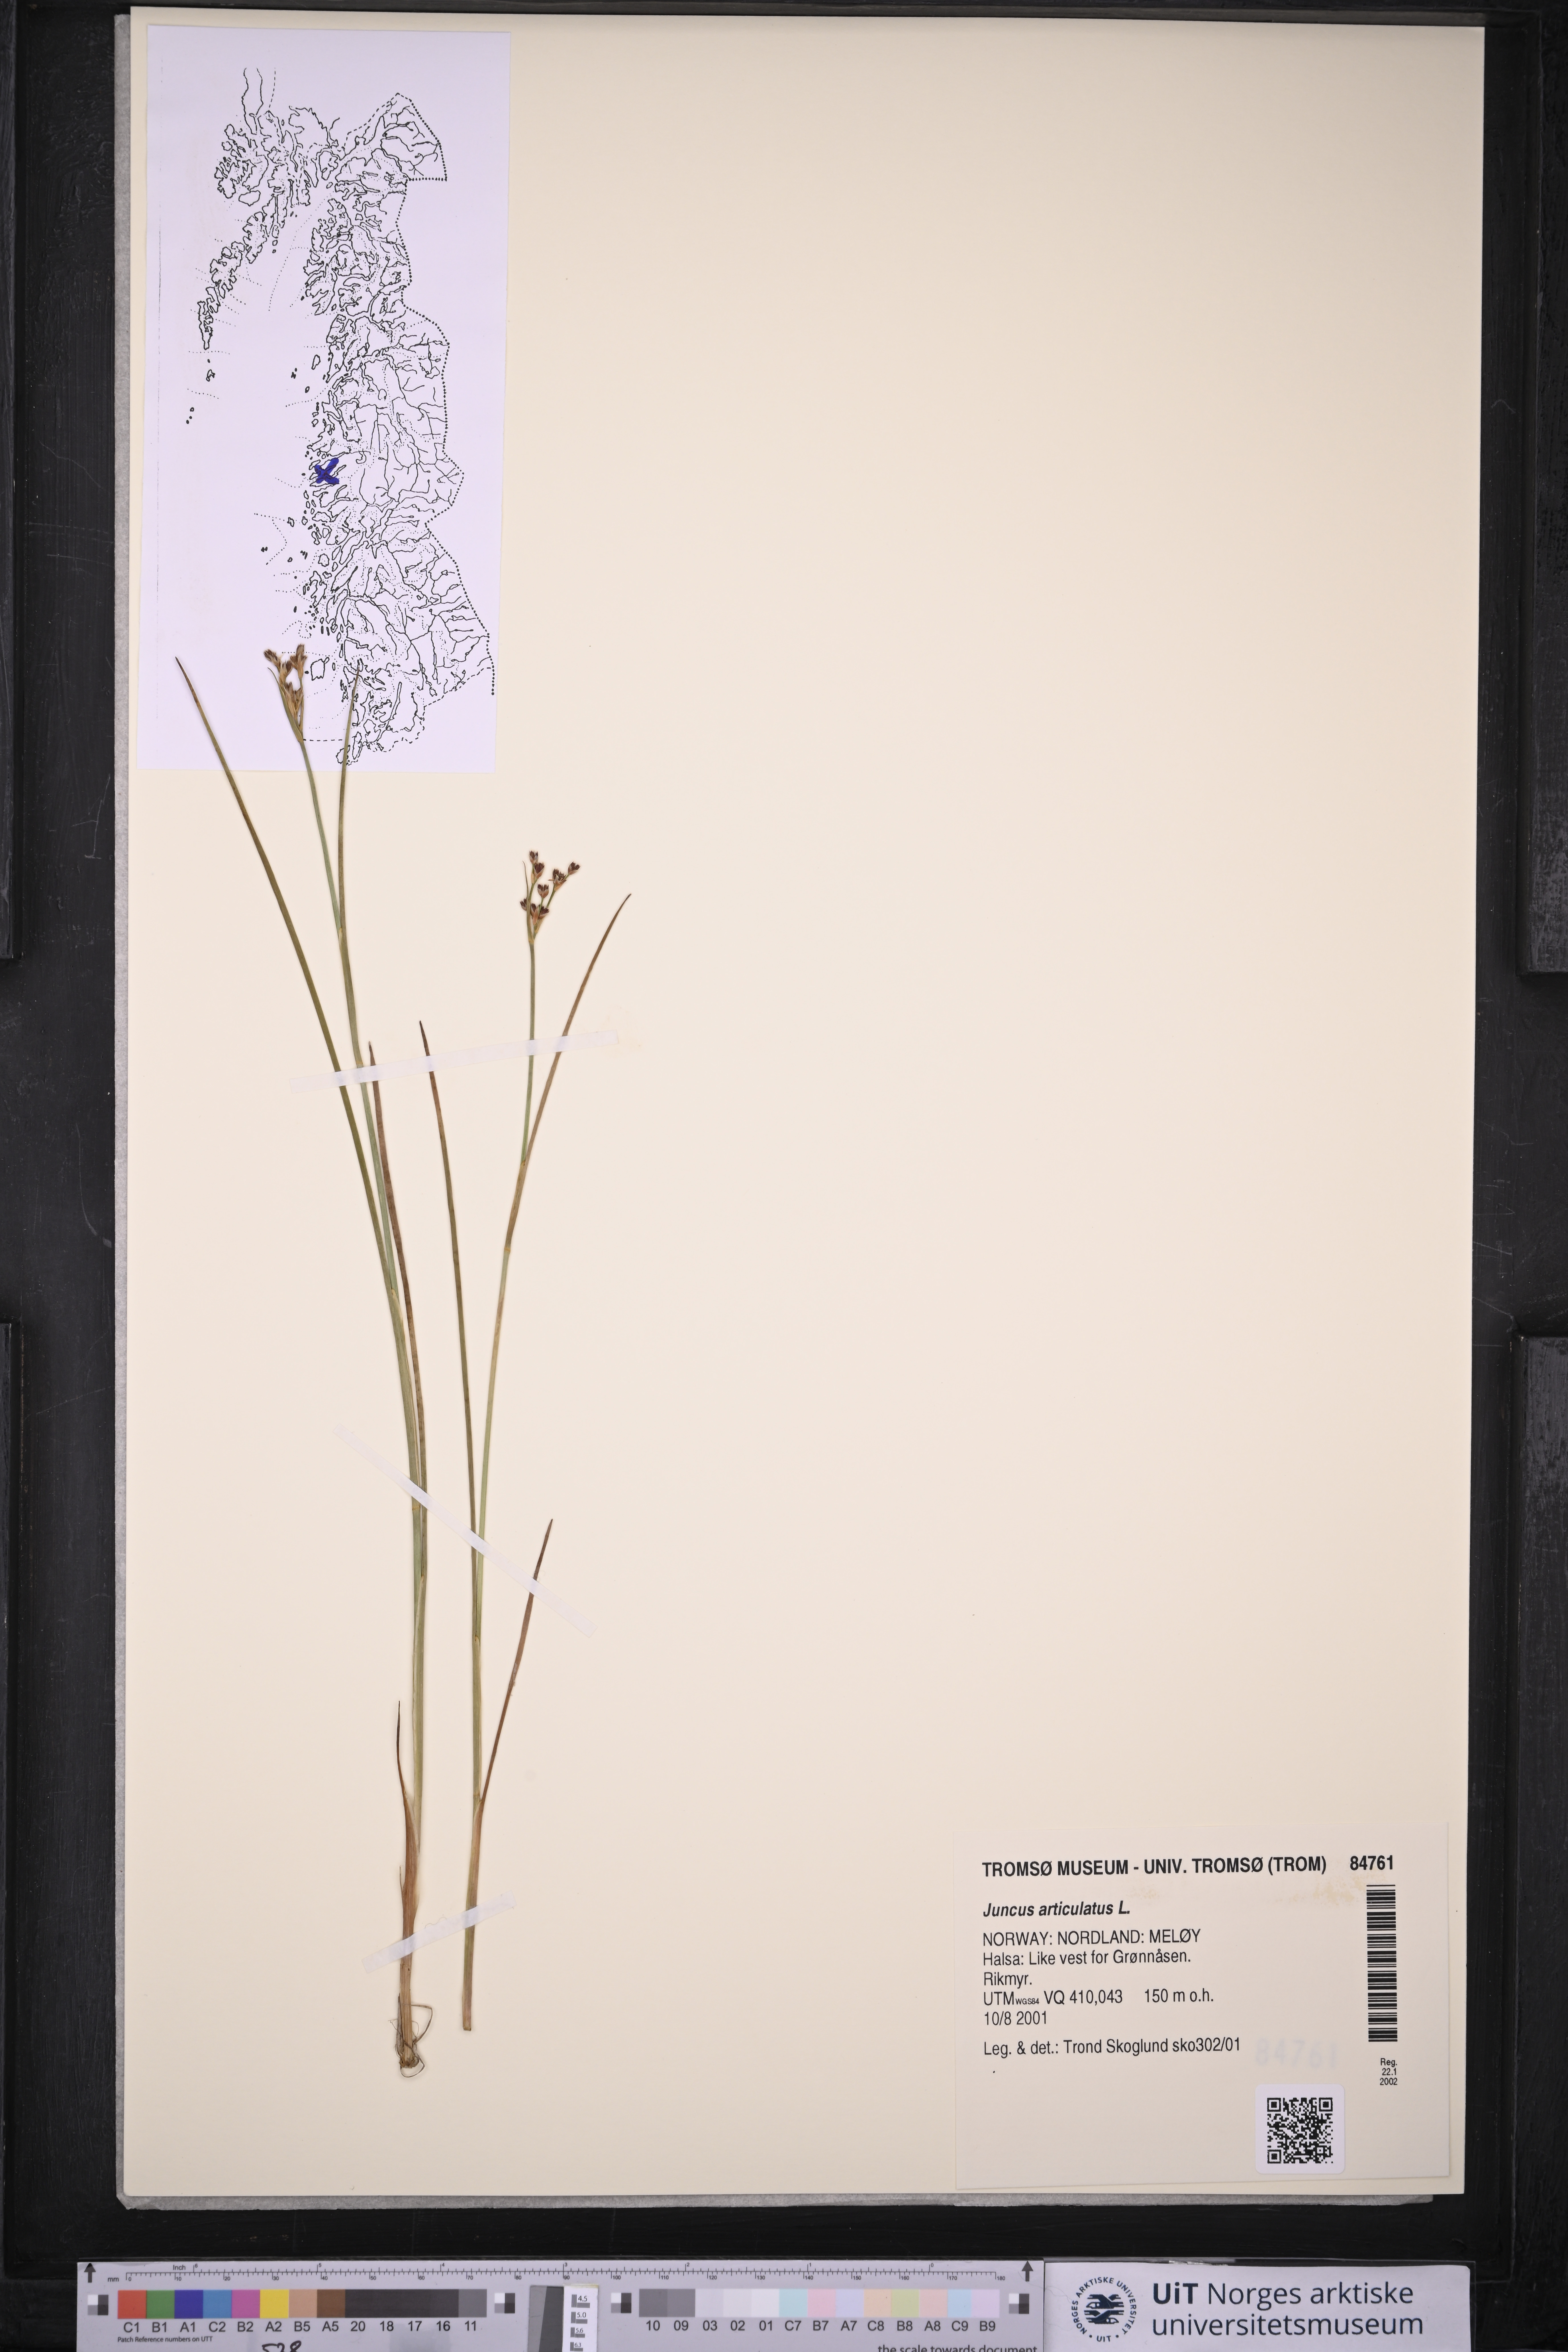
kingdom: Plantae
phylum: Tracheophyta
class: Liliopsida
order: Poales
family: Juncaceae
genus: Juncus
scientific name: Juncus articulatus
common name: Jointed rush
